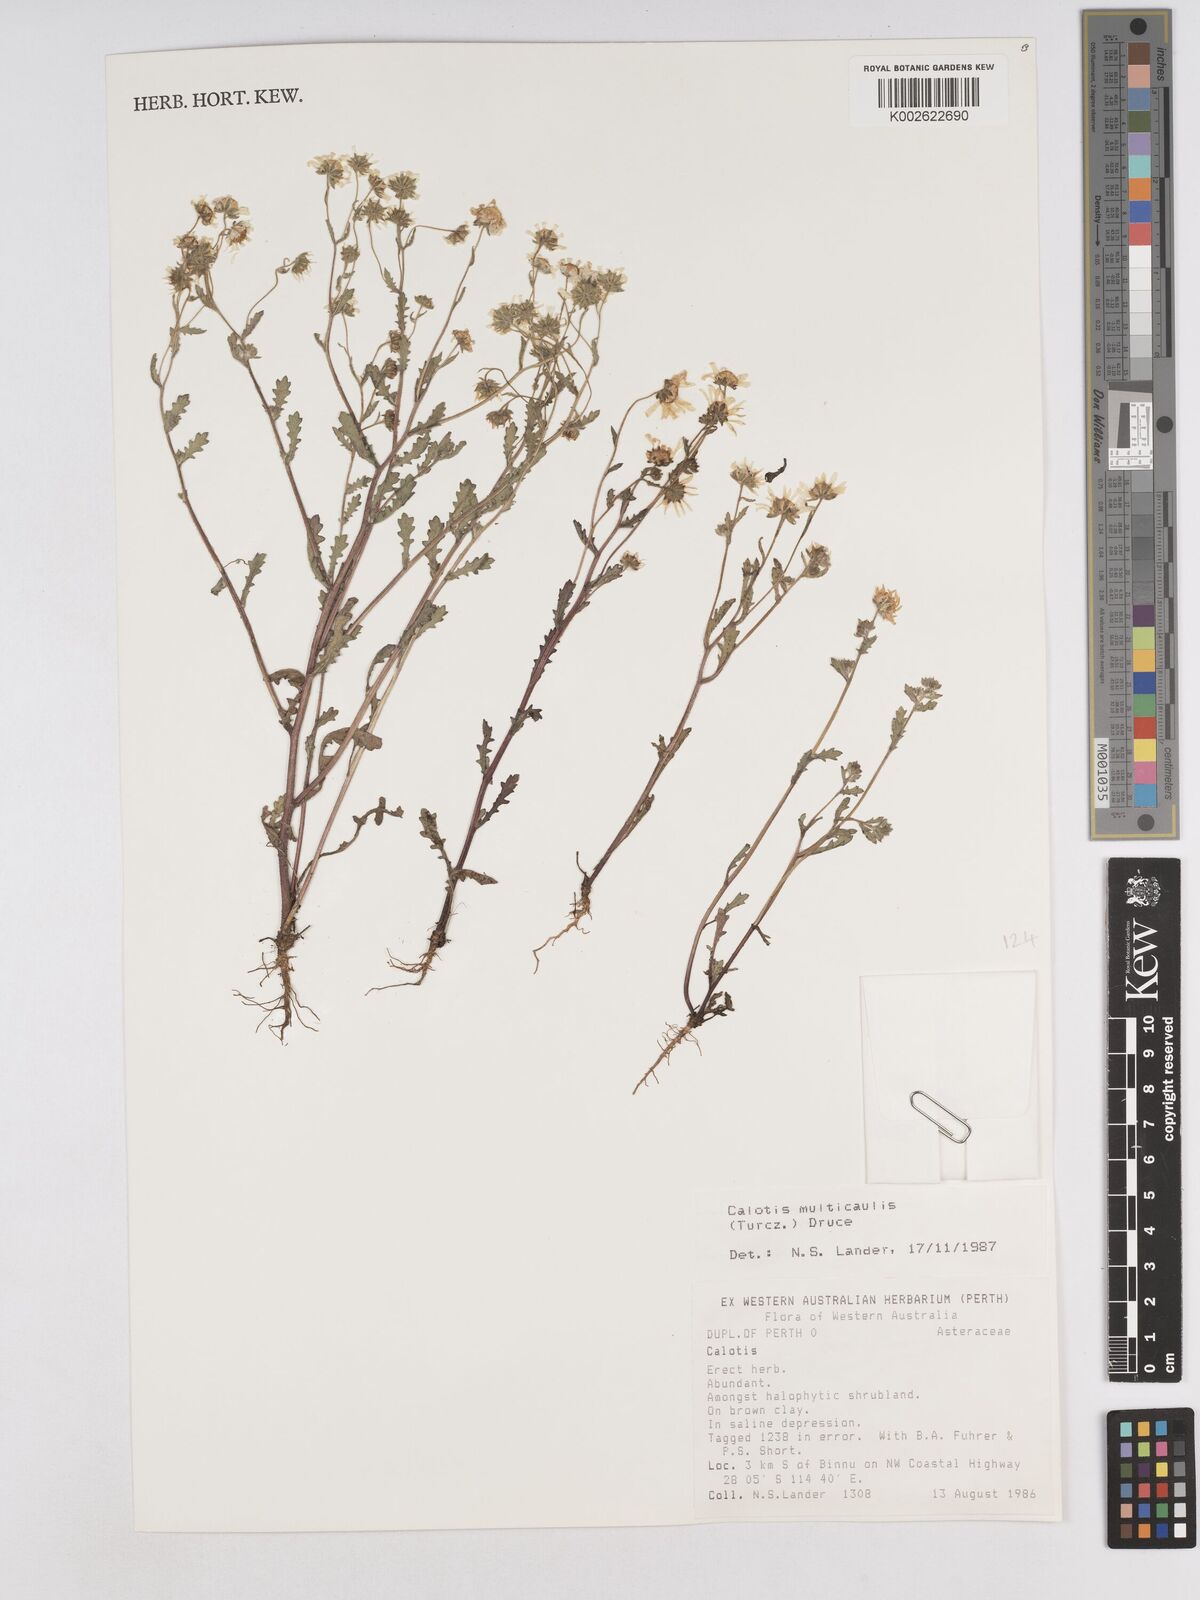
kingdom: Plantae
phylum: Tracheophyta
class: Magnoliopsida
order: Asterales
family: Asteraceae
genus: Calotis
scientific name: Calotis multicaulis
